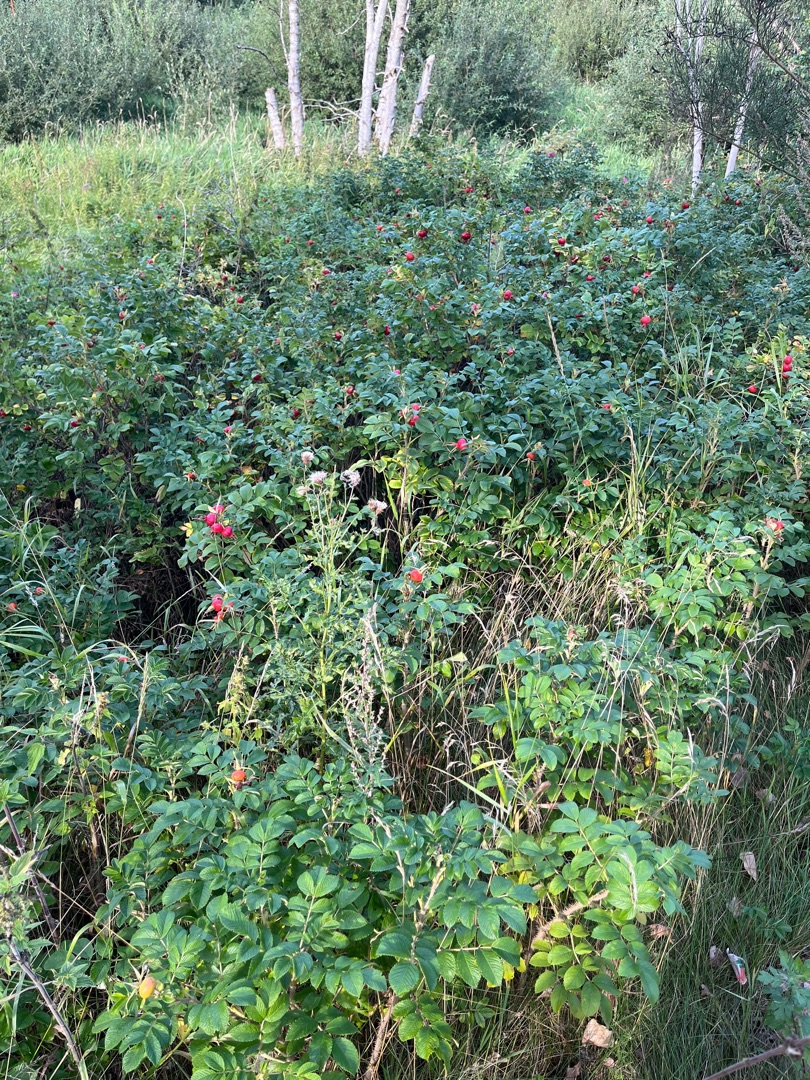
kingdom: Plantae
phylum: Tracheophyta
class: Magnoliopsida
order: Rosales
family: Rosaceae
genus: Rosa
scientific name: Rosa rugosa
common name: Rynket rose
